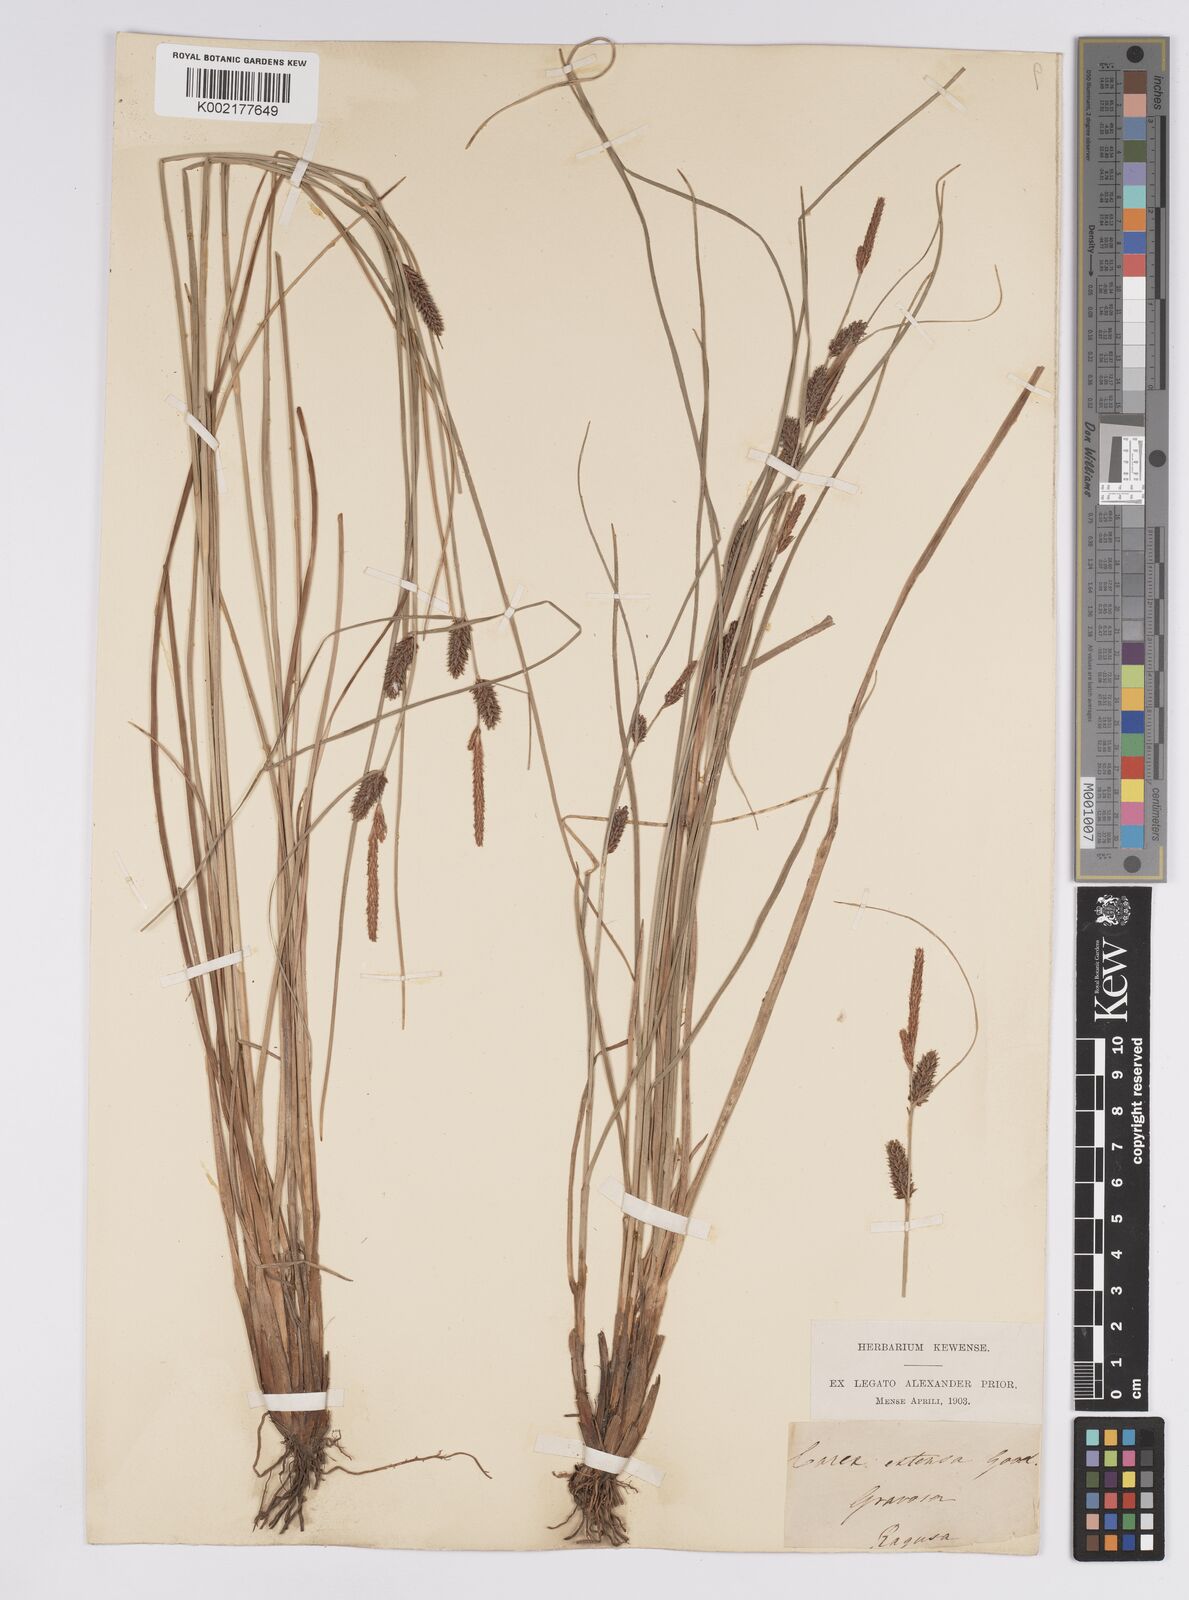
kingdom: Plantae
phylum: Tracheophyta
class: Liliopsida
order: Poales
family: Cyperaceae
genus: Carex
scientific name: Carex extensa
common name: Long-bracted sedge
